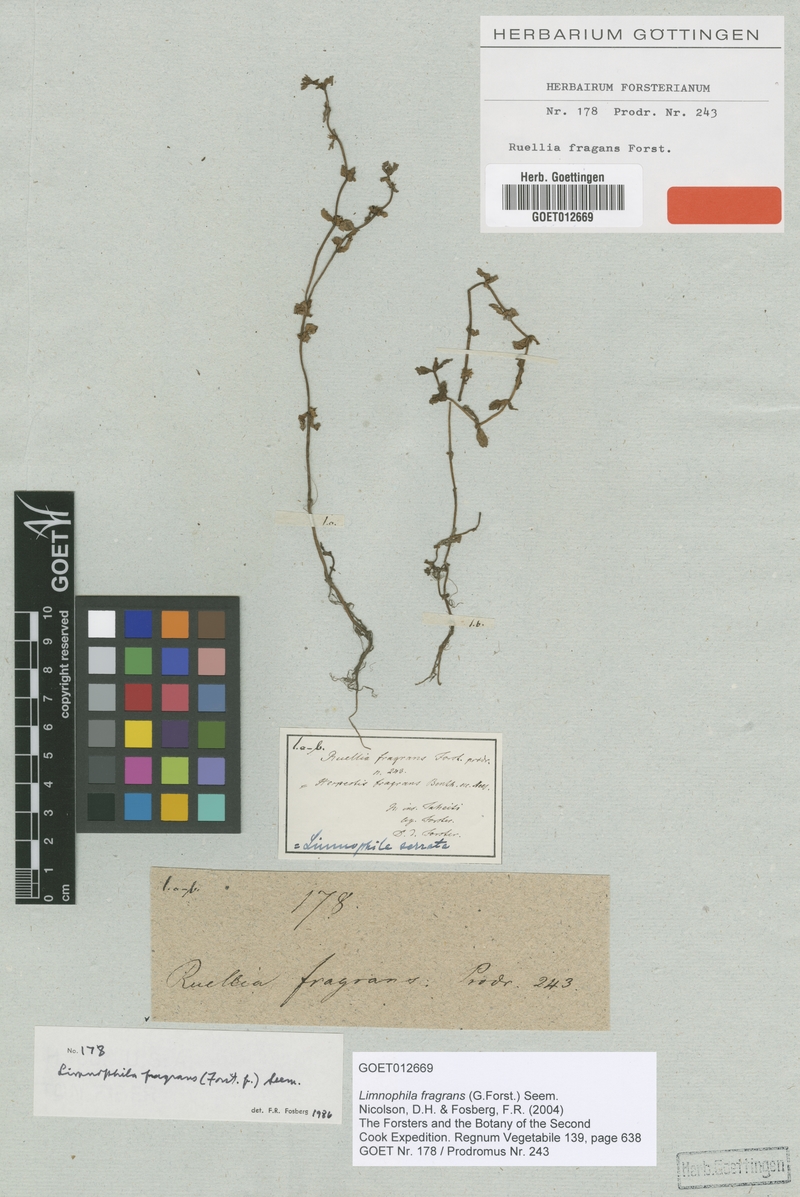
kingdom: Plantae
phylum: Tracheophyta
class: Magnoliopsida
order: Lamiales
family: Plantaginaceae
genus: Limnophila
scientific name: Limnophila fragrans
